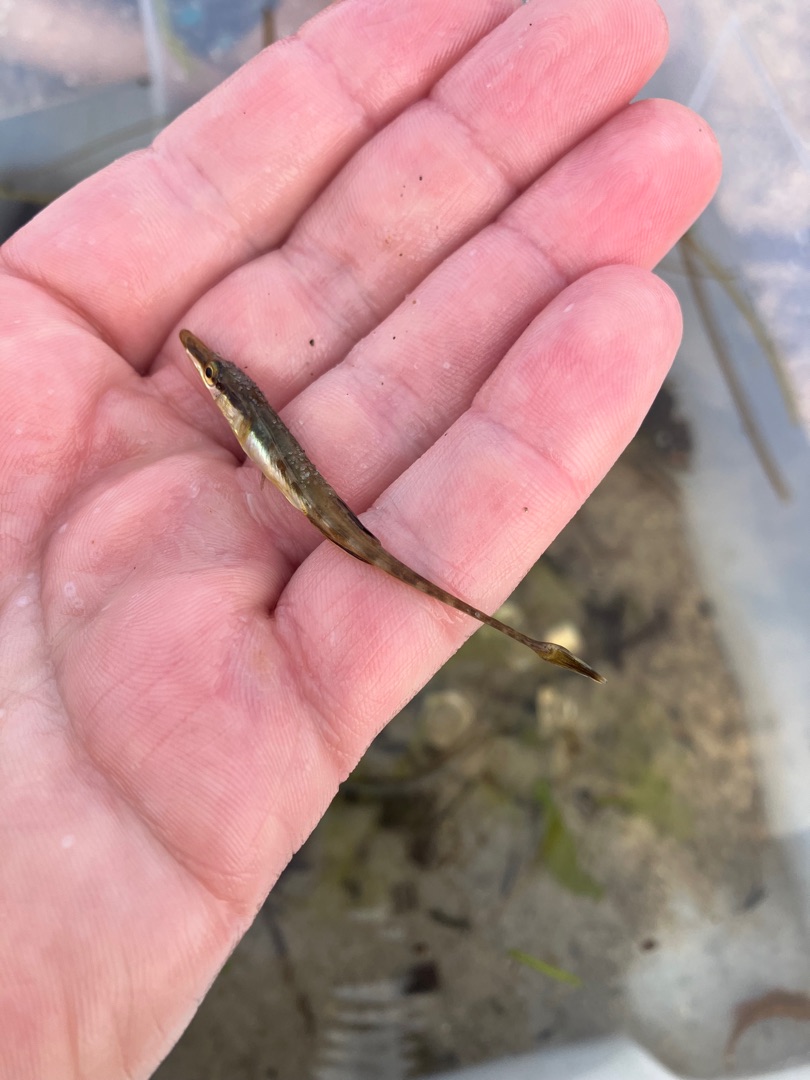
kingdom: Animalia
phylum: Chordata
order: Gasterosteiformes
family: Gasterosteidae
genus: Spinachia
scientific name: Spinachia spinachia
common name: Tangsnarre
